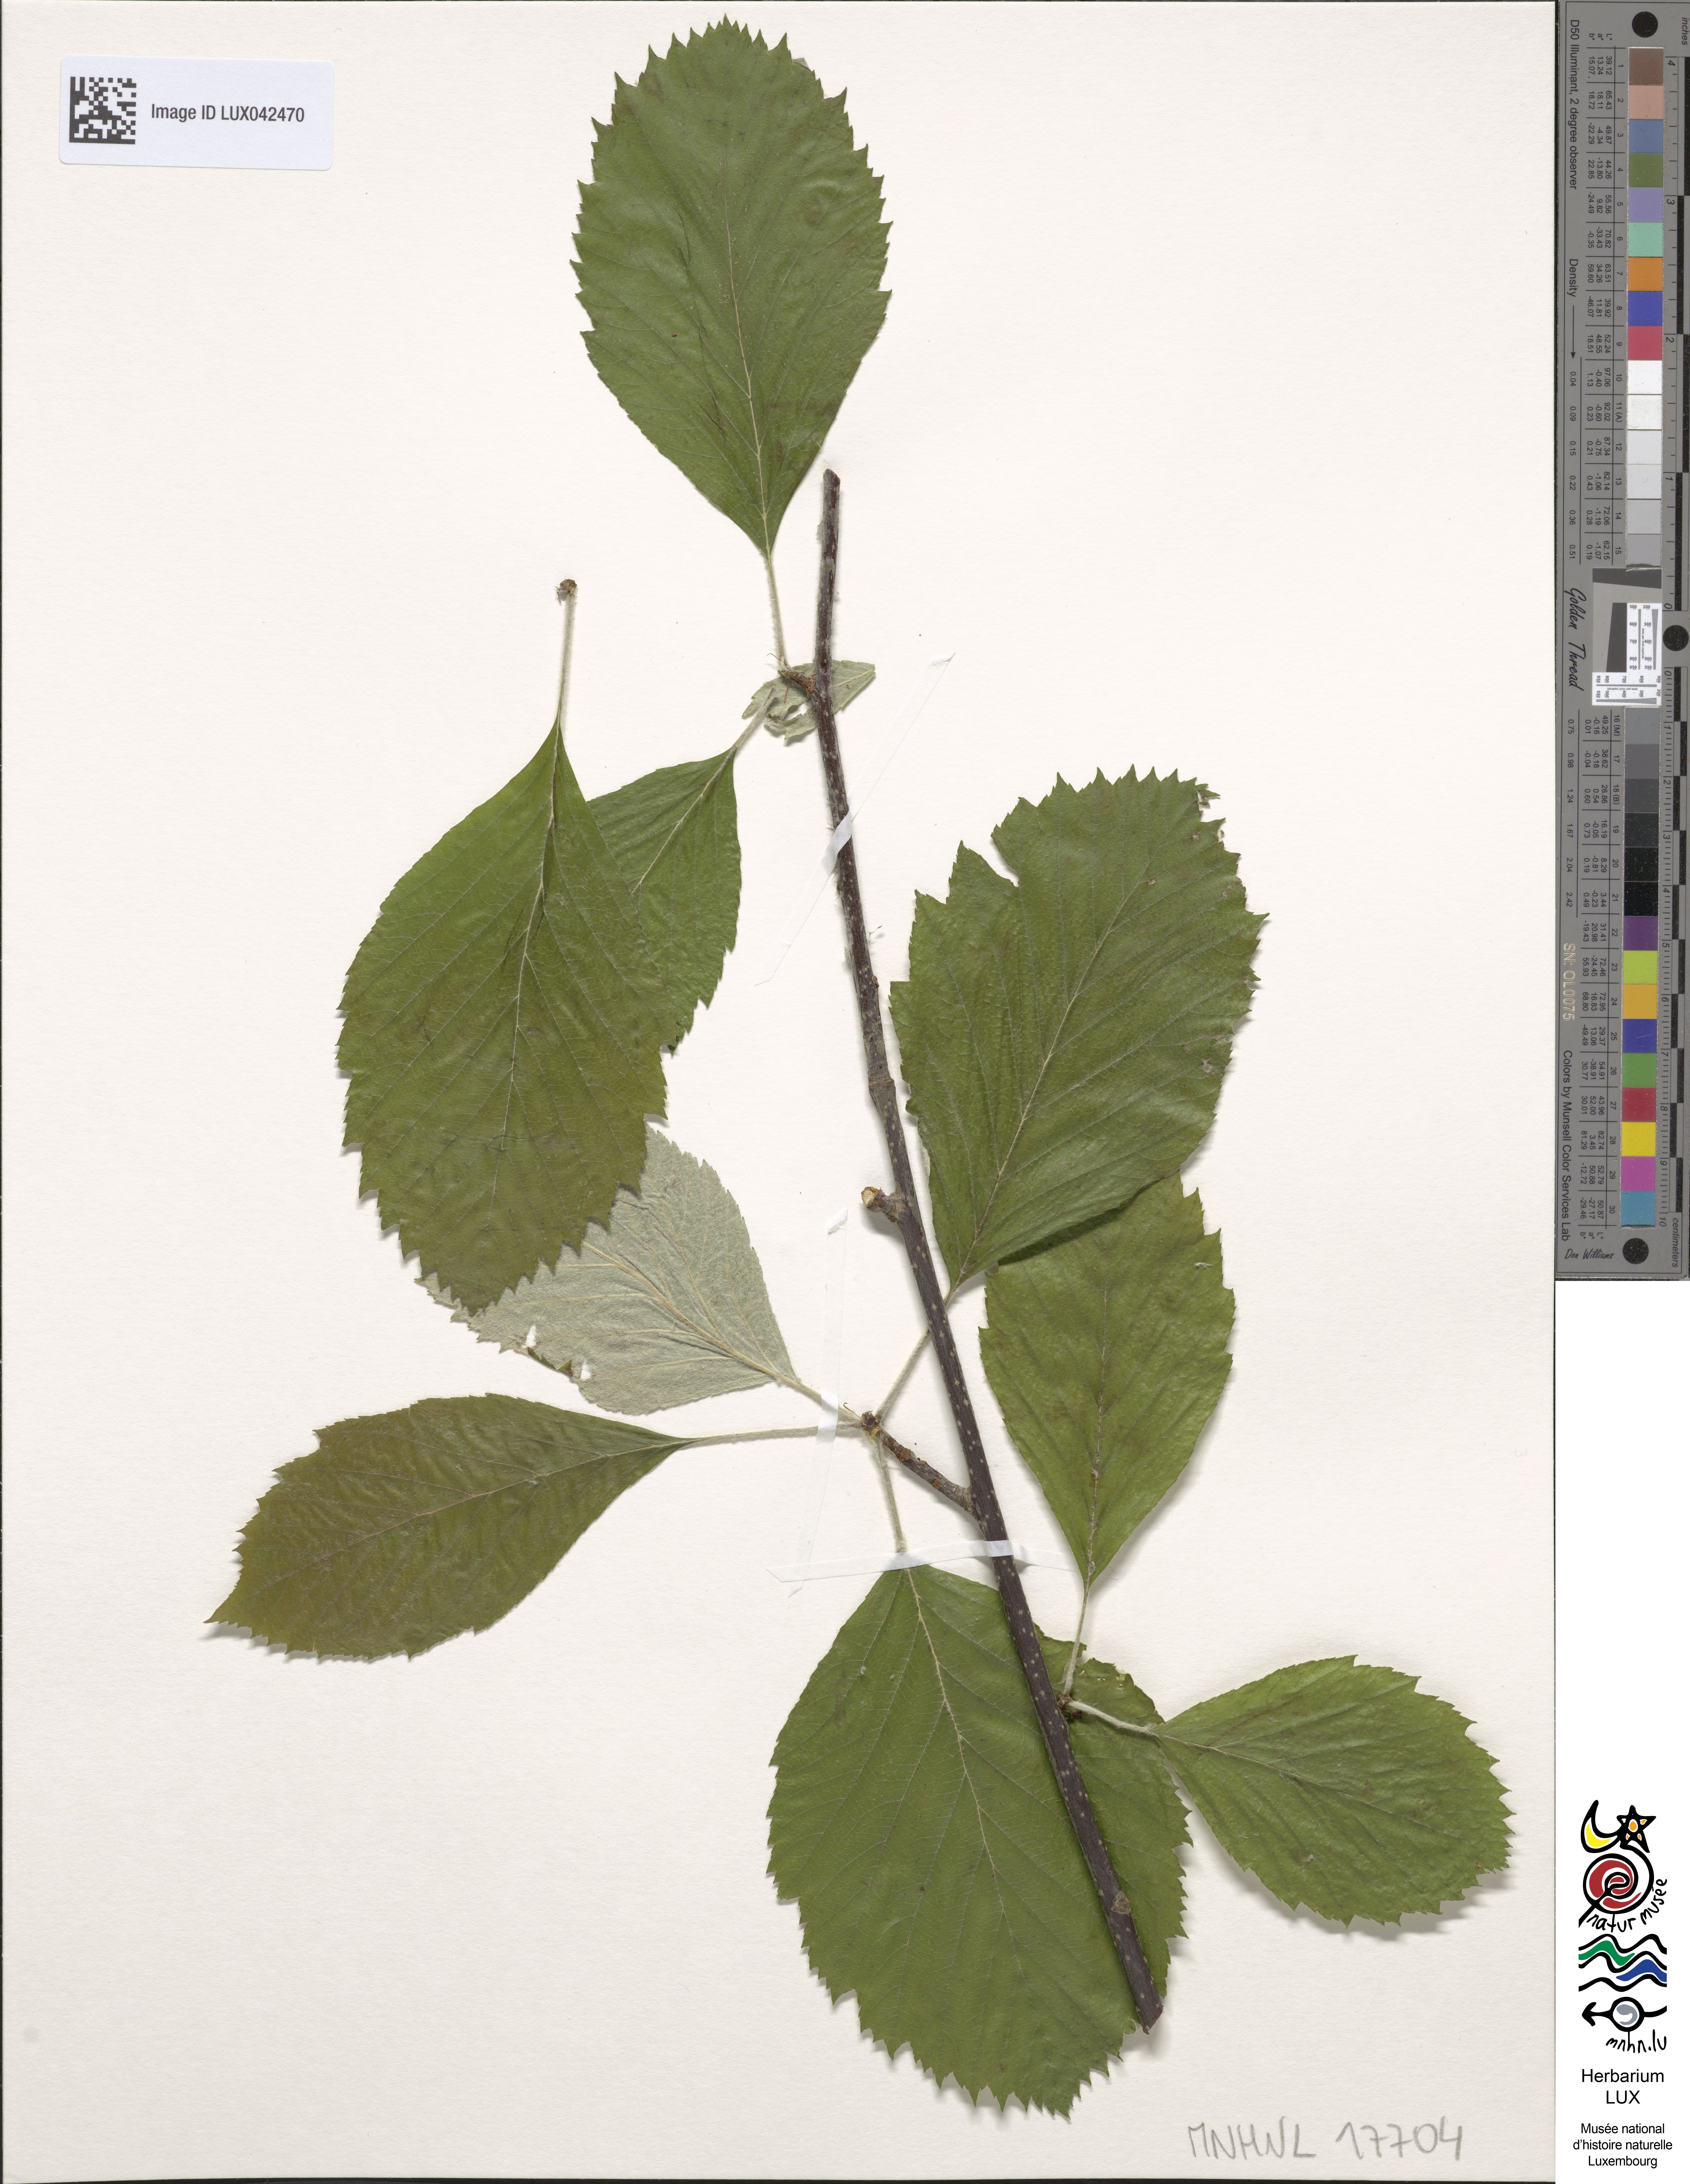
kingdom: Plantae
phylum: Tracheophyta
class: Magnoliopsida
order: Rosales
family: Rosaceae
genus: Sorbus
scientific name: Sorbus
